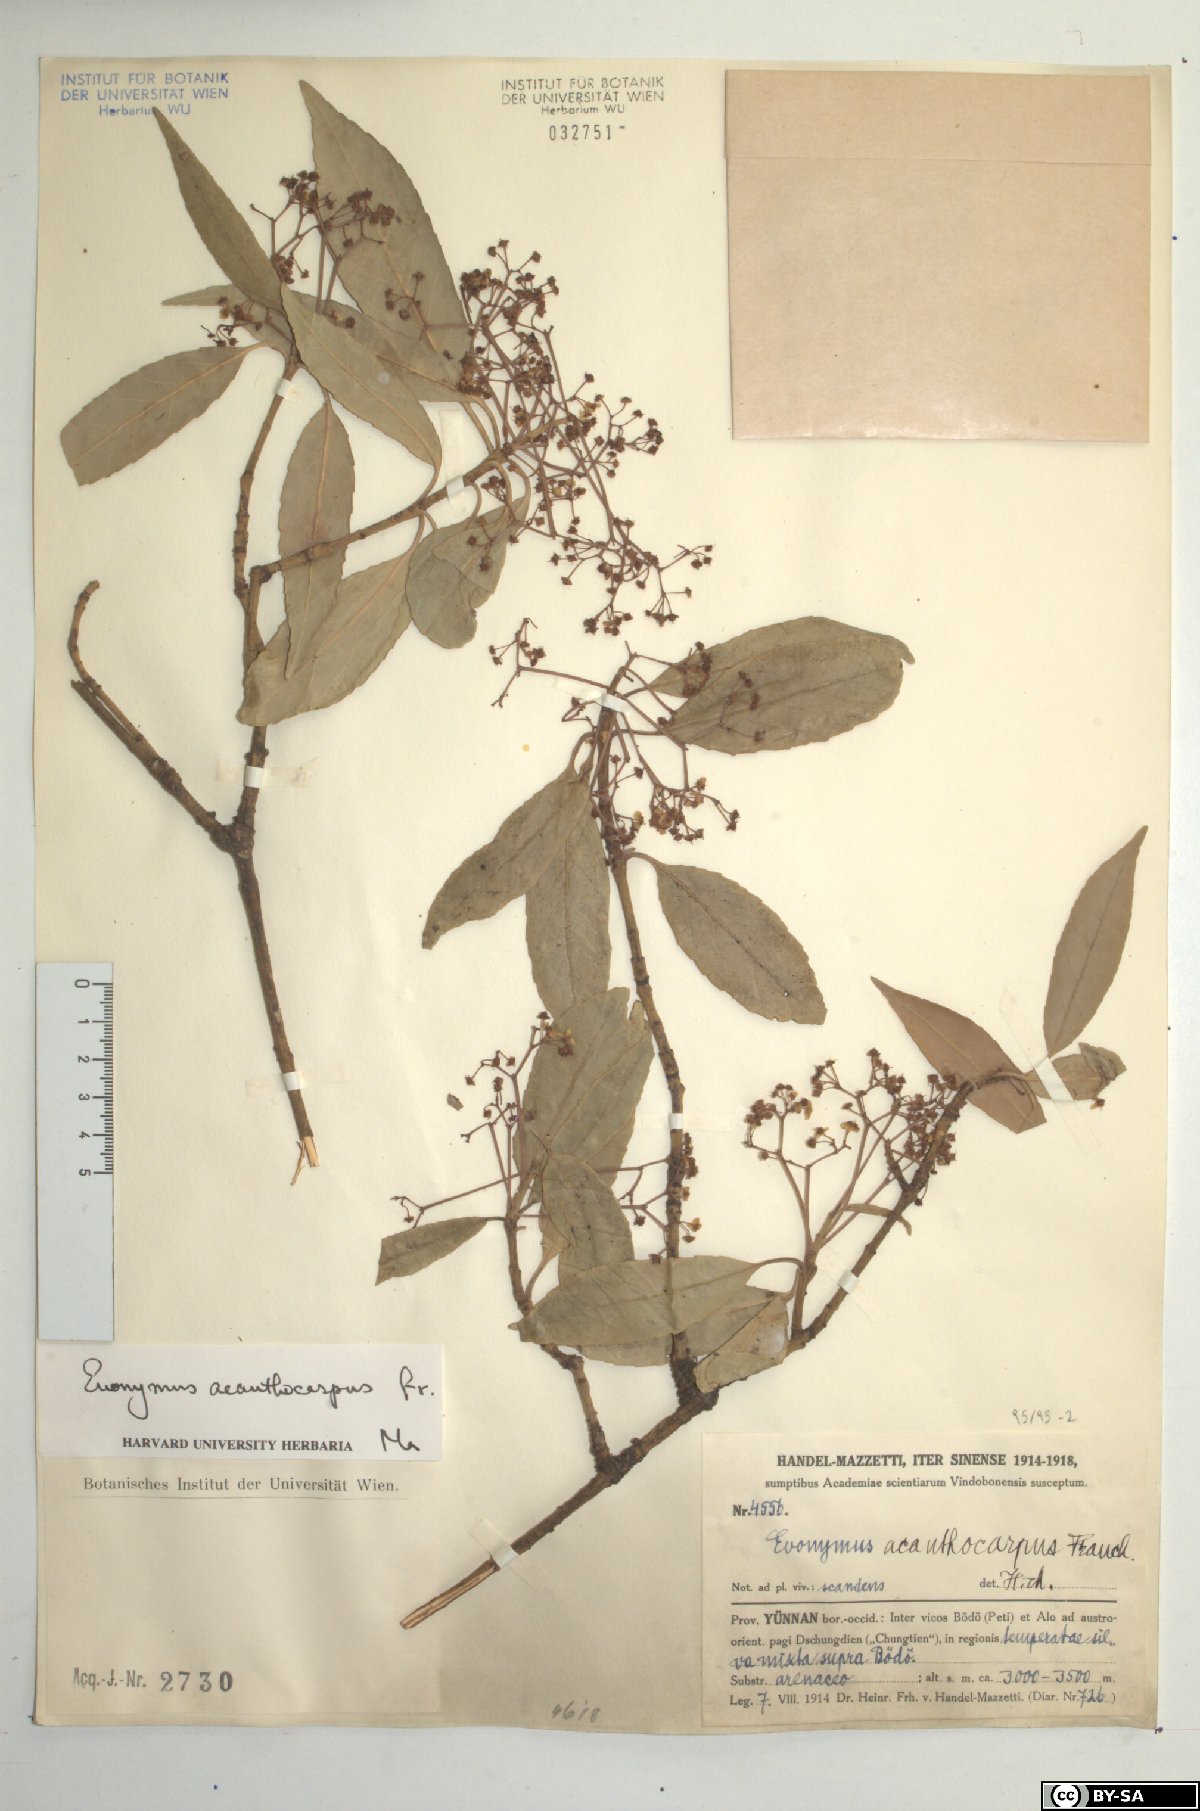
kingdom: Plantae
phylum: Tracheophyta
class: Magnoliopsida
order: Celastrales
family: Celastraceae
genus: Euonymus
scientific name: Euonymus acanthocarpus
